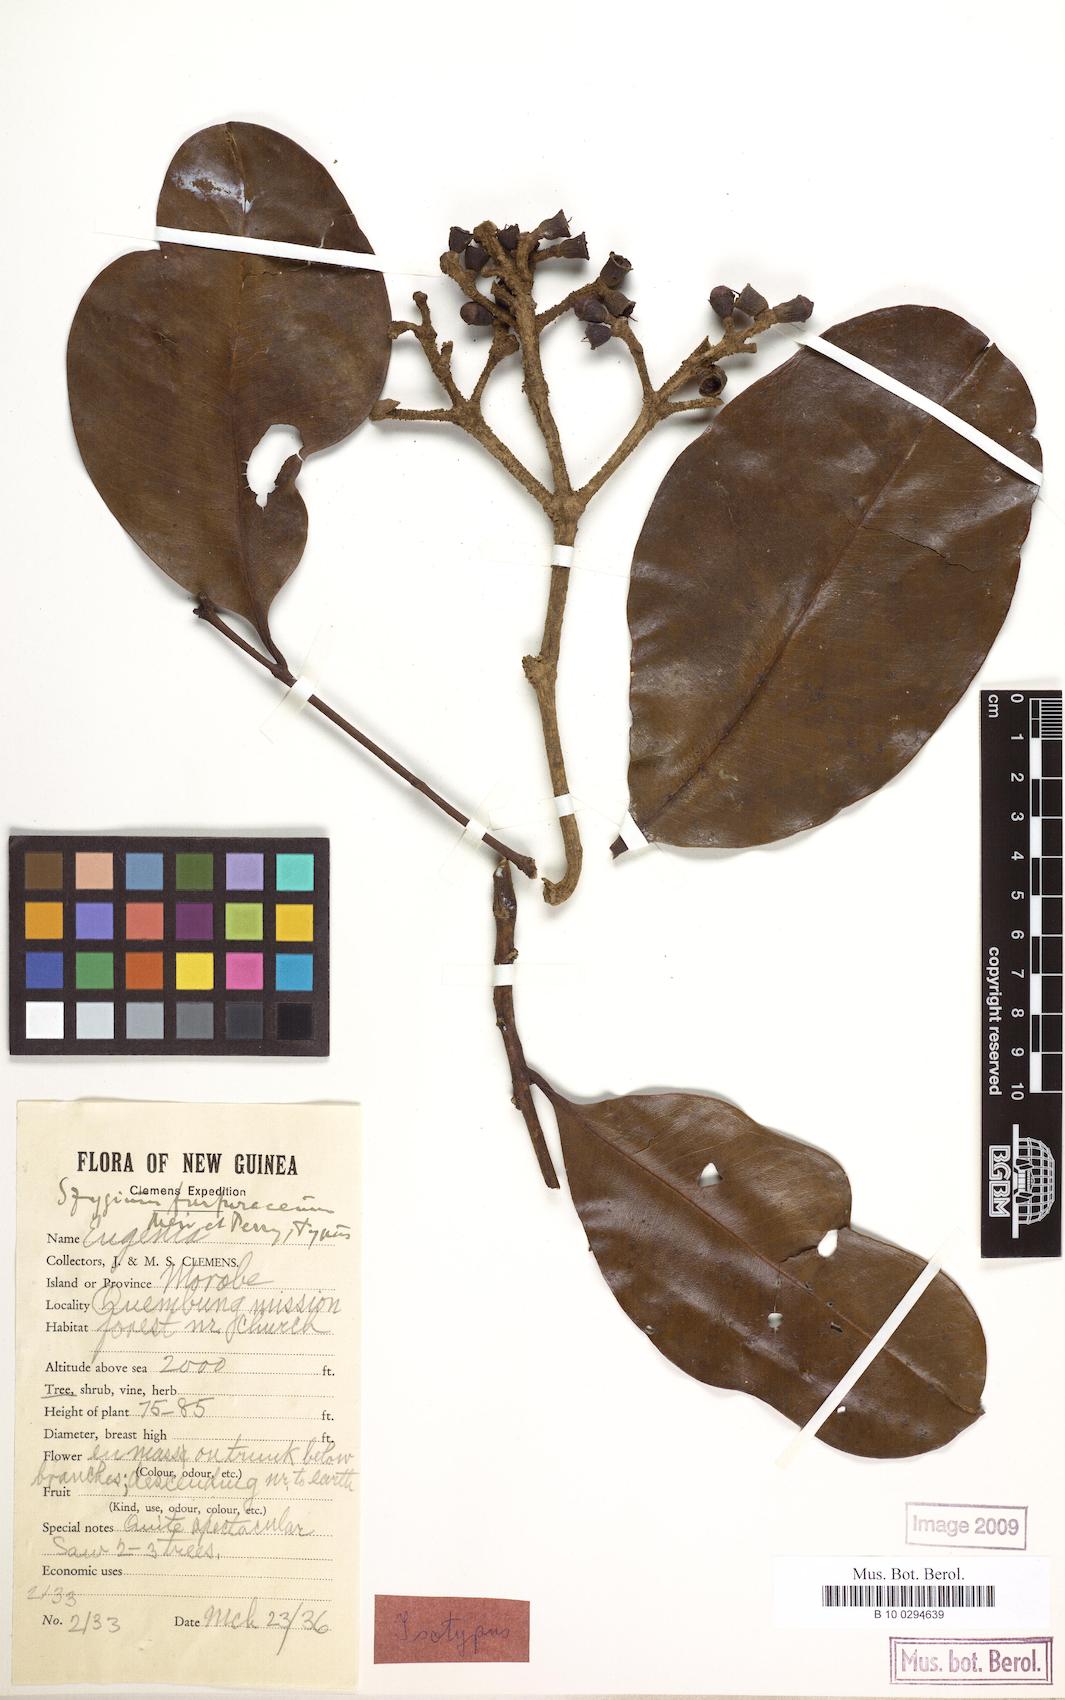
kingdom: Plantae
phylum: Tracheophyta
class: Magnoliopsida
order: Myrtales
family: Myrtaceae
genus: Syzygium
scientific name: Syzygium furfuraceum
